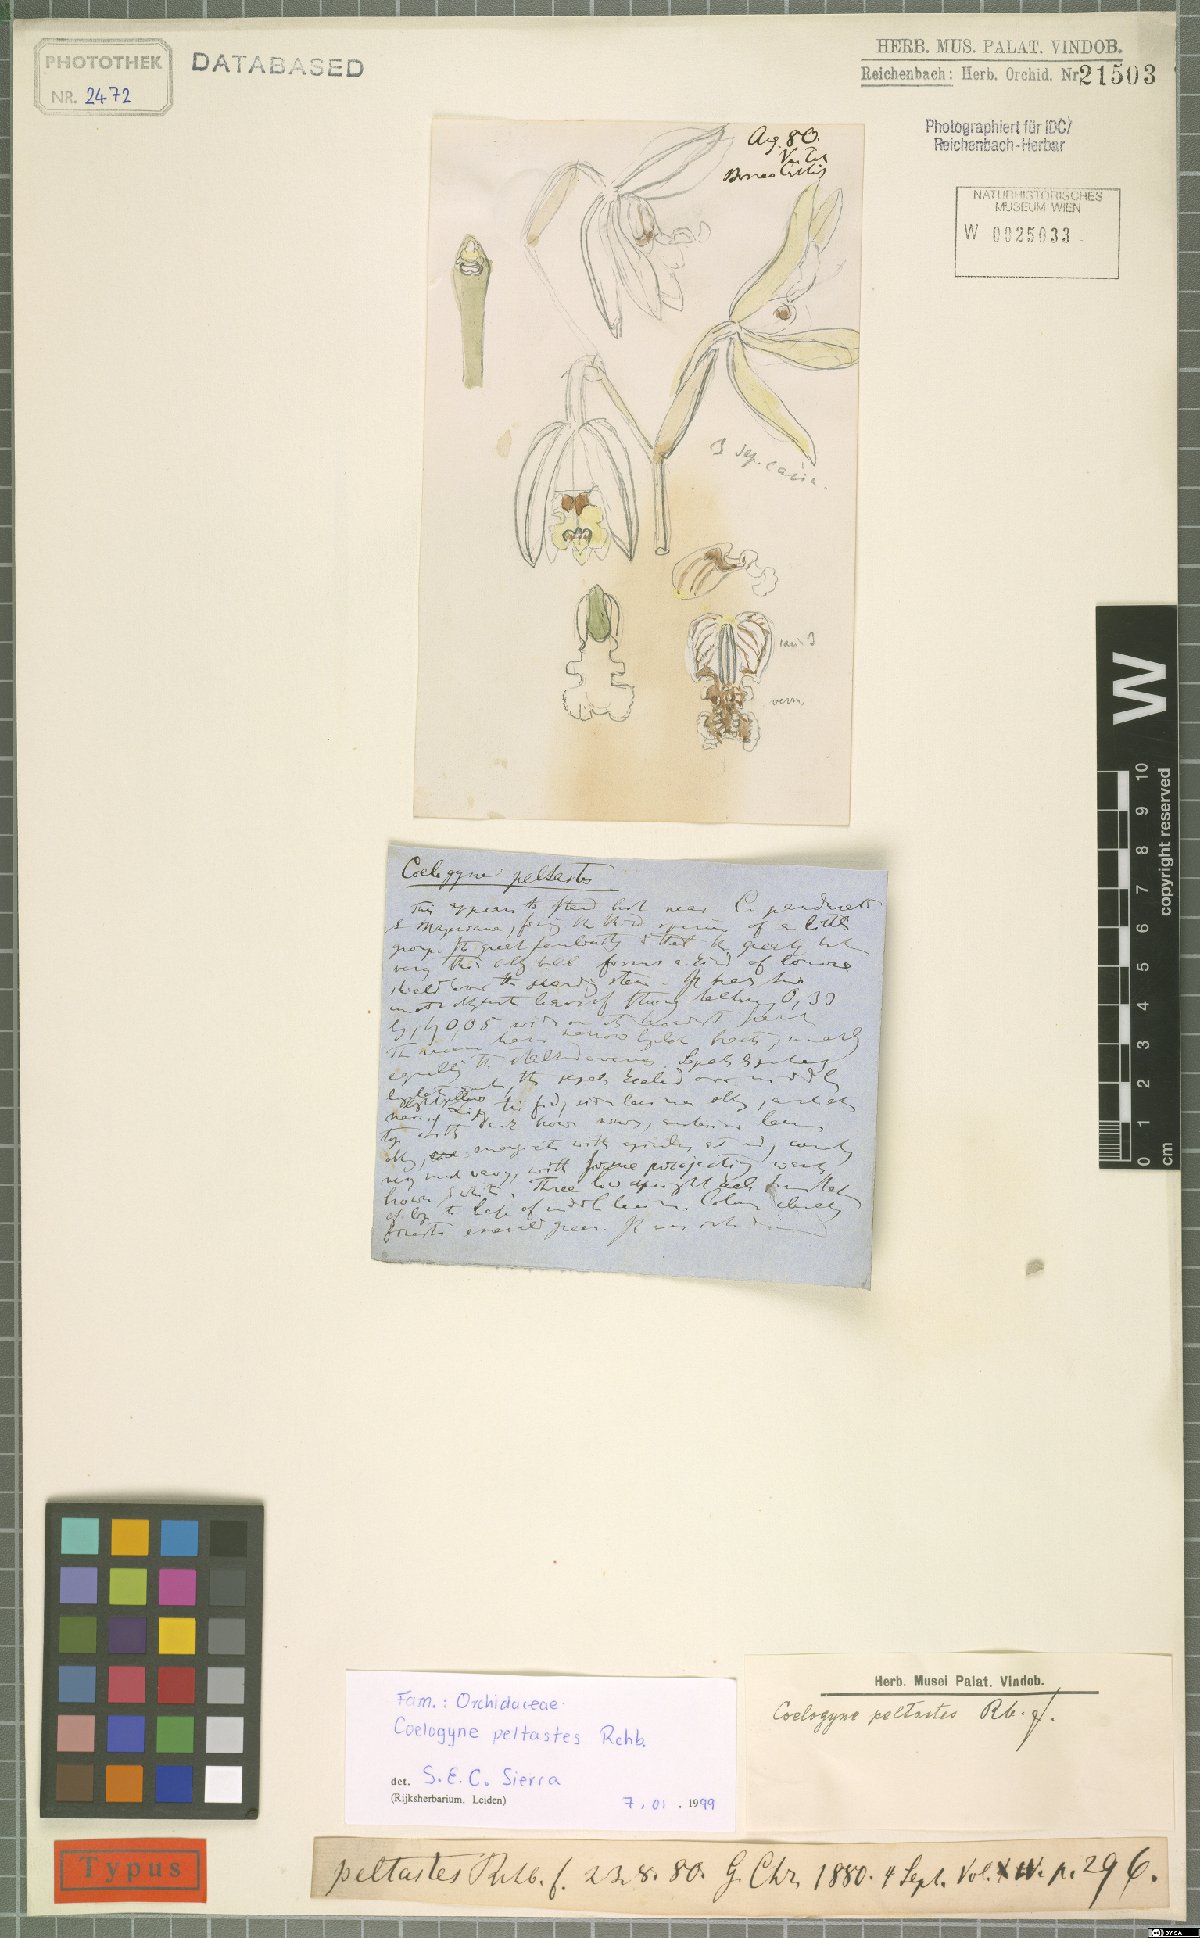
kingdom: Plantae
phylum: Tracheophyta
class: Liliopsida
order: Asparagales
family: Orchidaceae
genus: Coelogyne
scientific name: Coelogyne peltastes
